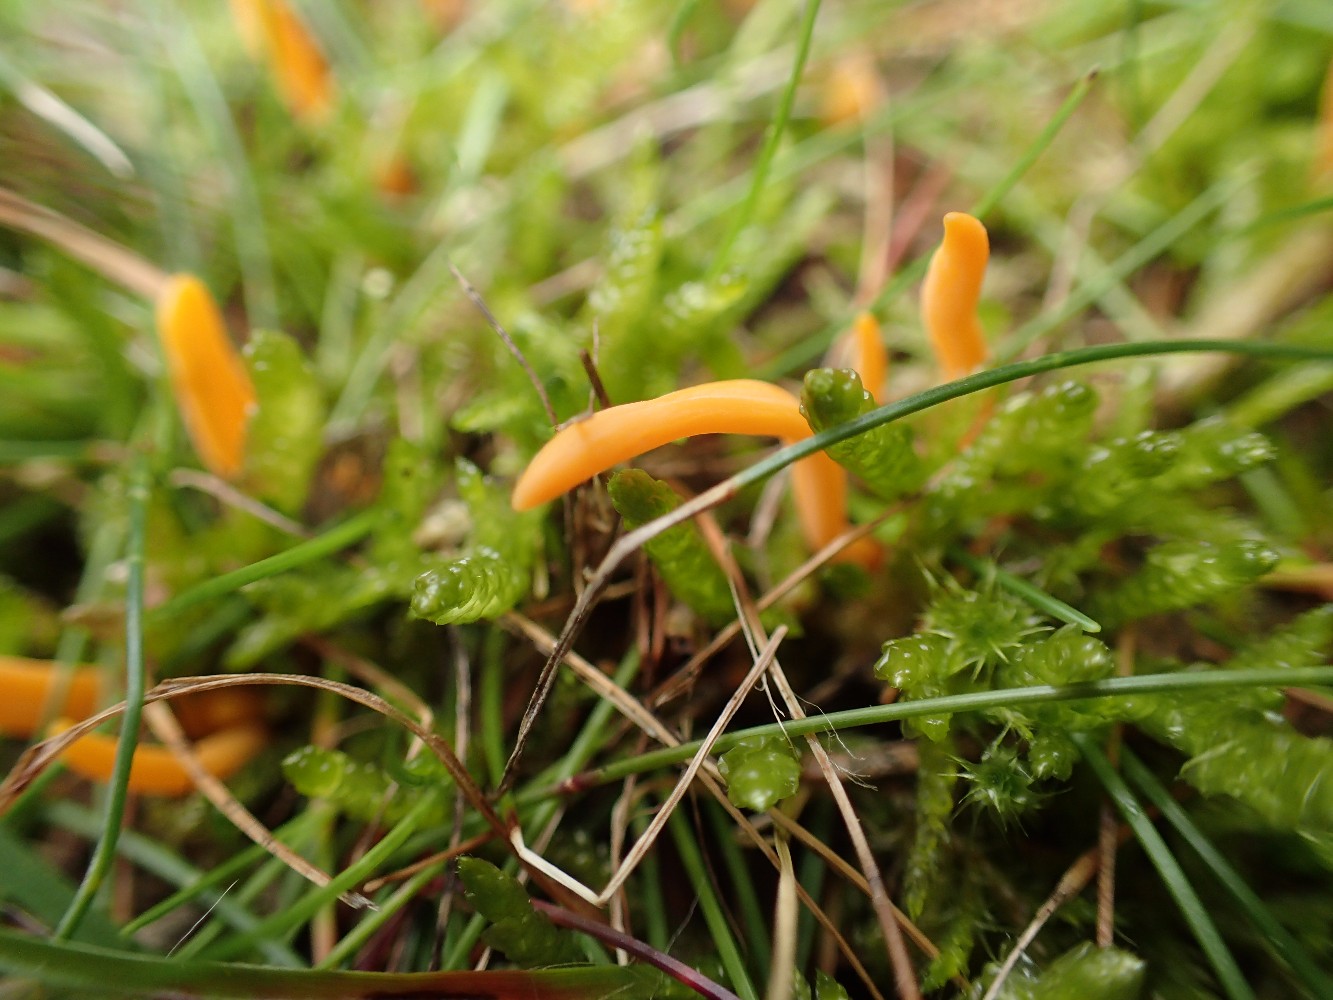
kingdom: Fungi
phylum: Basidiomycota
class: Agaricomycetes
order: Agaricales
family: Clavariaceae
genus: Clavulinopsis
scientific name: Clavulinopsis luteoalba
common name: abrikos-køllesvamp
